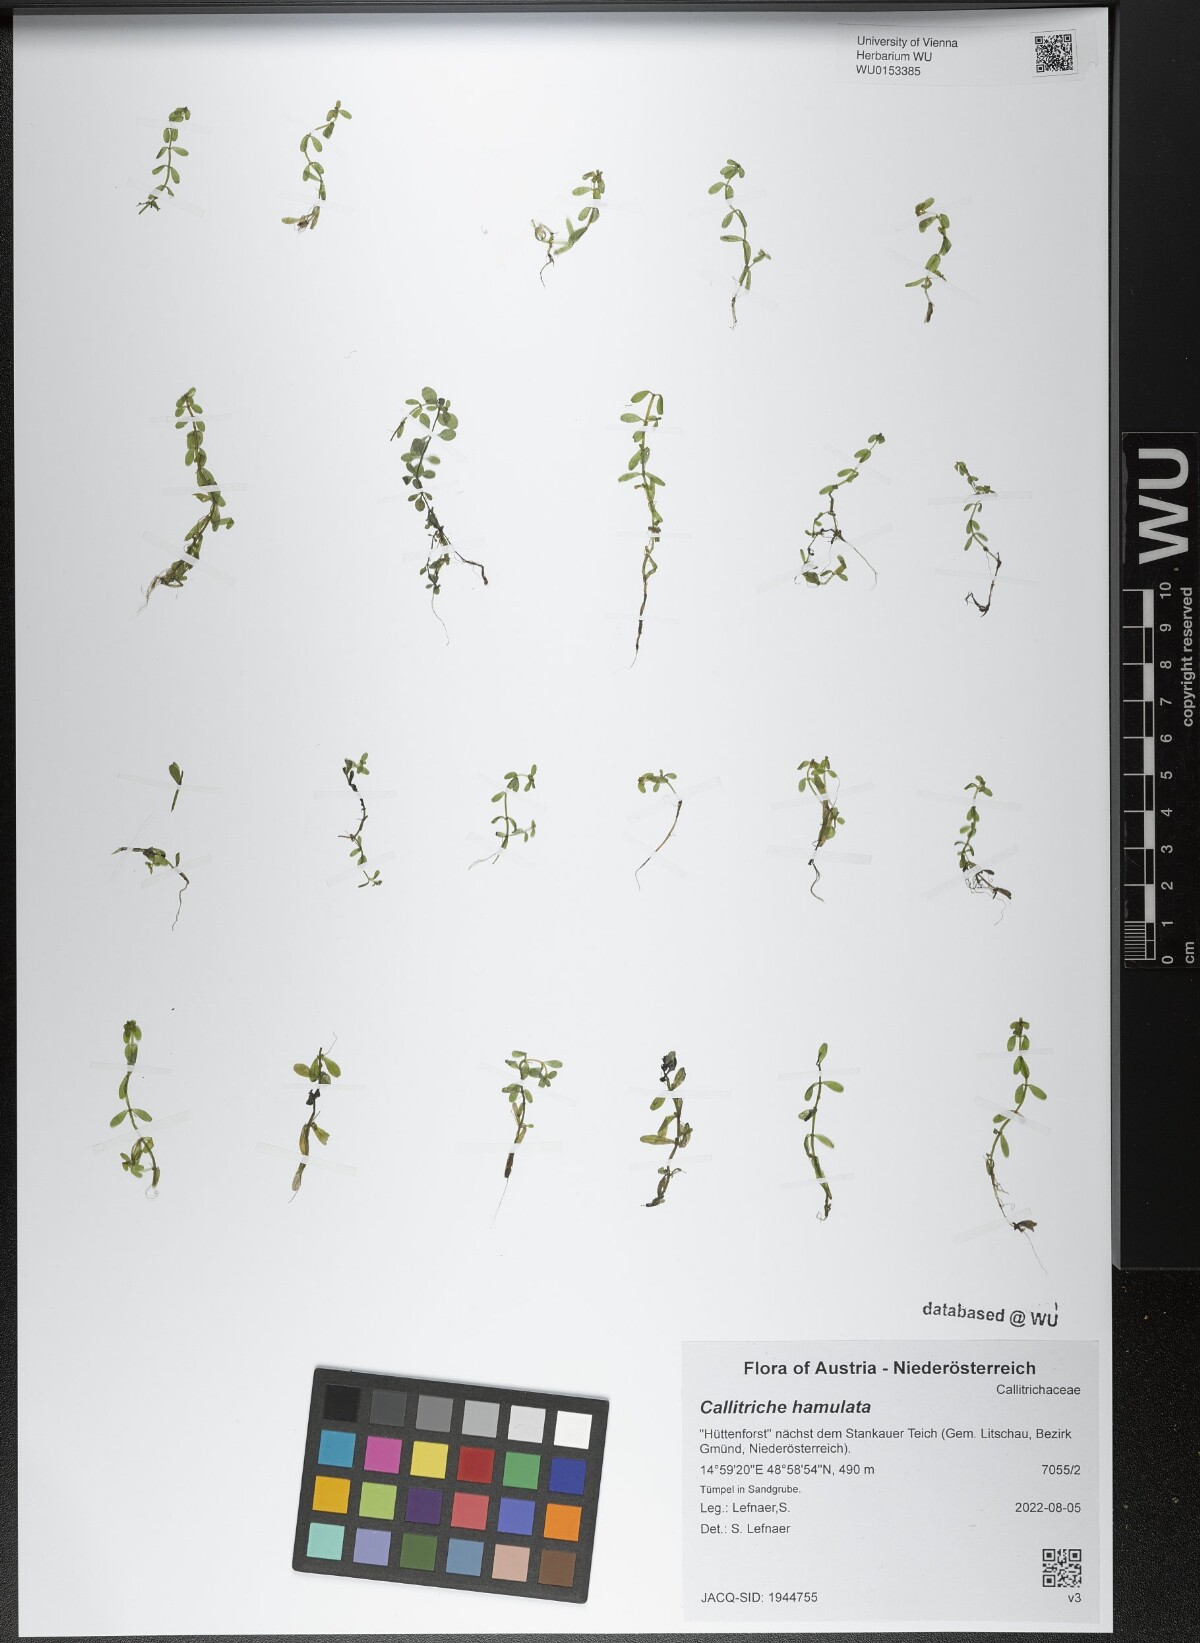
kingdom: Plantae
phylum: Tracheophyta
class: Magnoliopsida
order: Lamiales
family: Plantaginaceae
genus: Callitriche
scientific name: Callitriche hamulata
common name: Intermediate water-starwort
